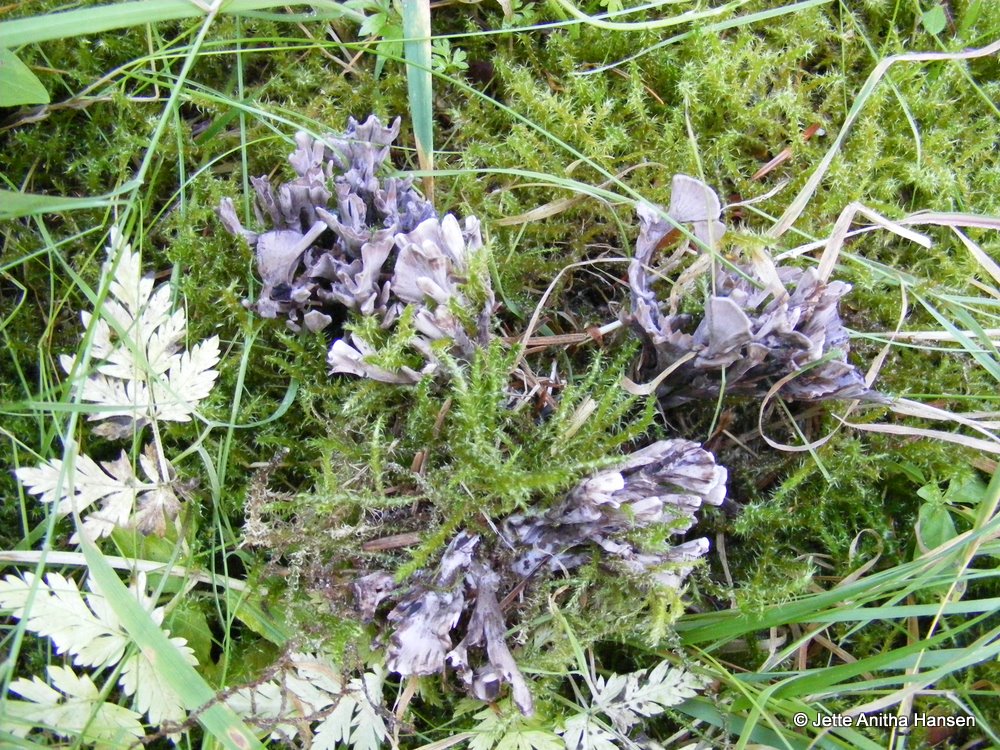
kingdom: Fungi
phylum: Basidiomycota
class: Agaricomycetes
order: Thelephorales
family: Thelephoraceae
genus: Thelephora
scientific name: Thelephora palmata
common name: grenet frynsesvamp
